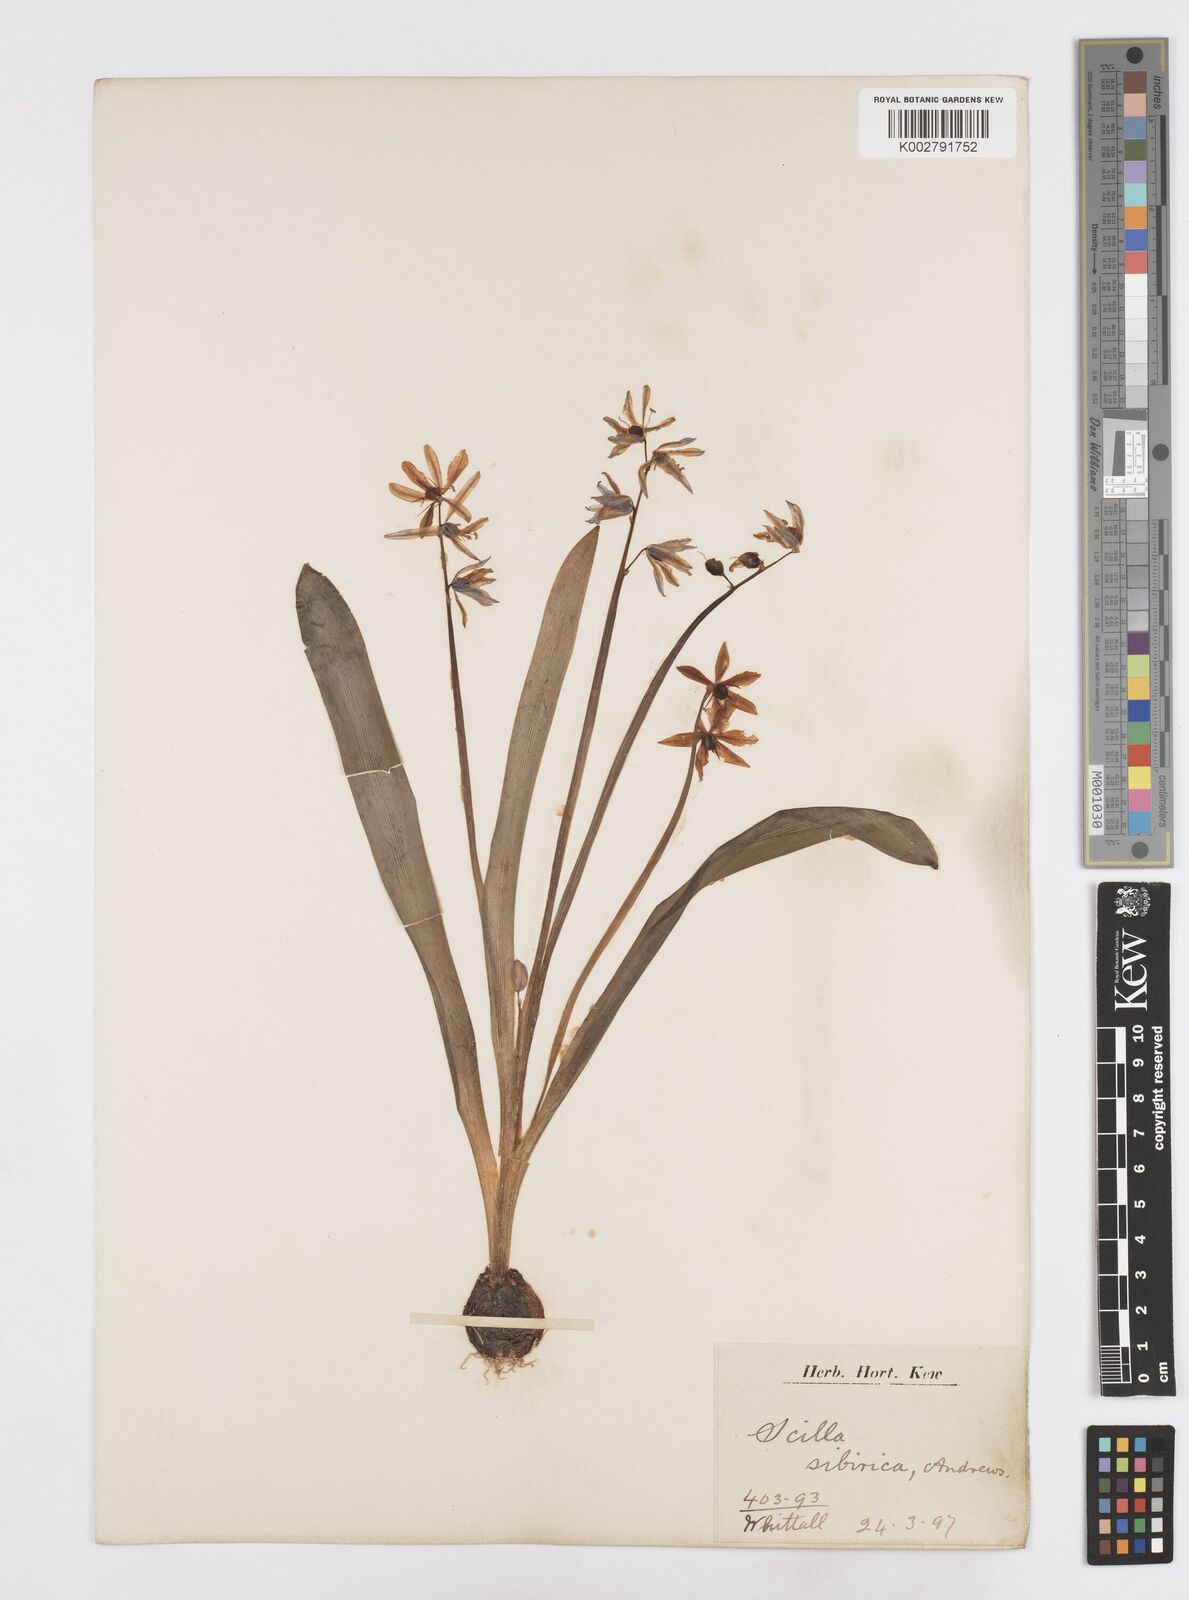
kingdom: Plantae
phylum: Tracheophyta
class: Liliopsida
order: Asparagales
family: Asparagaceae
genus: Scilla
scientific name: Scilla siberica
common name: Siberian squill
